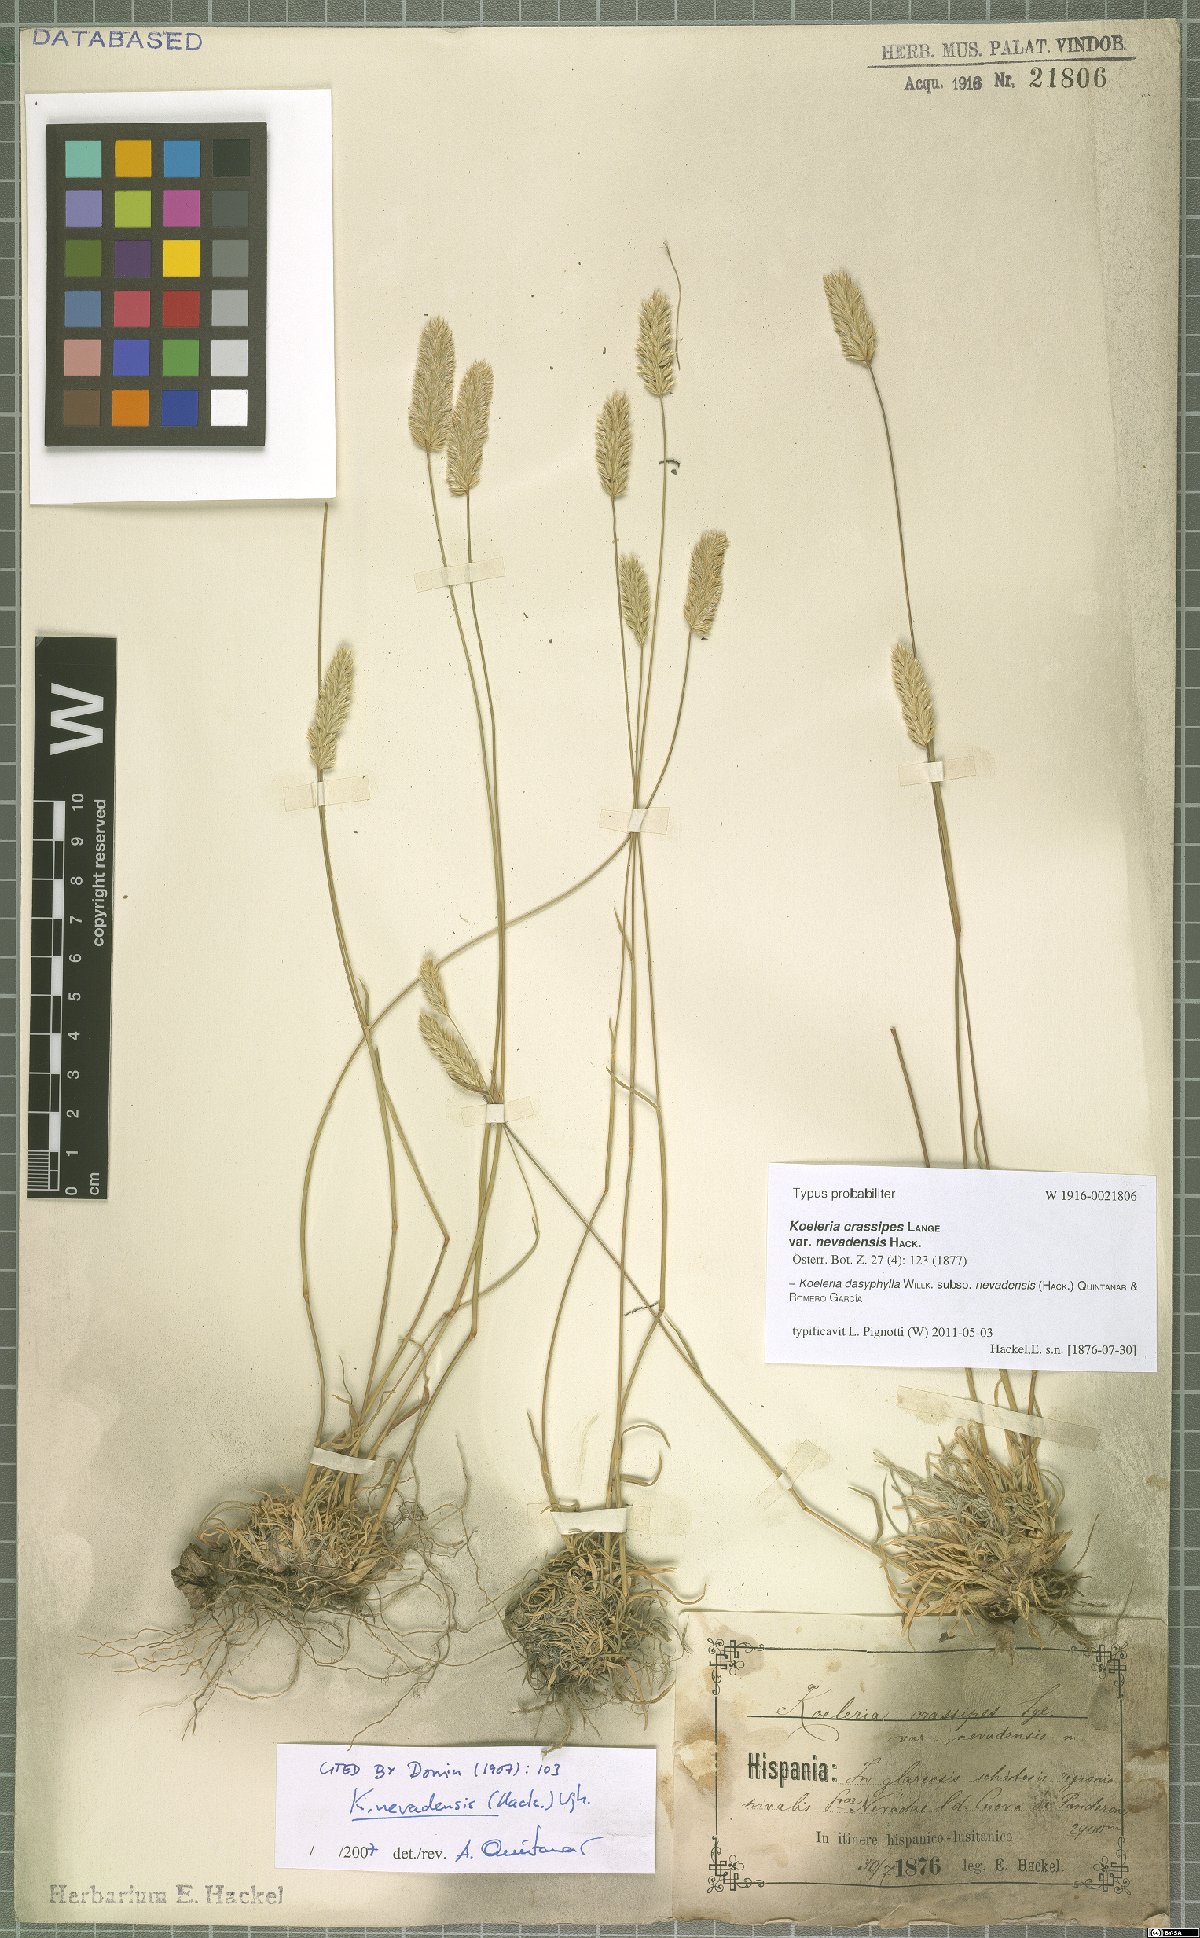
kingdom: Plantae
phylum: Tracheophyta
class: Liliopsida
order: Poales
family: Poaceae
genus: Koeleria
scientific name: Koeleria crassipes
